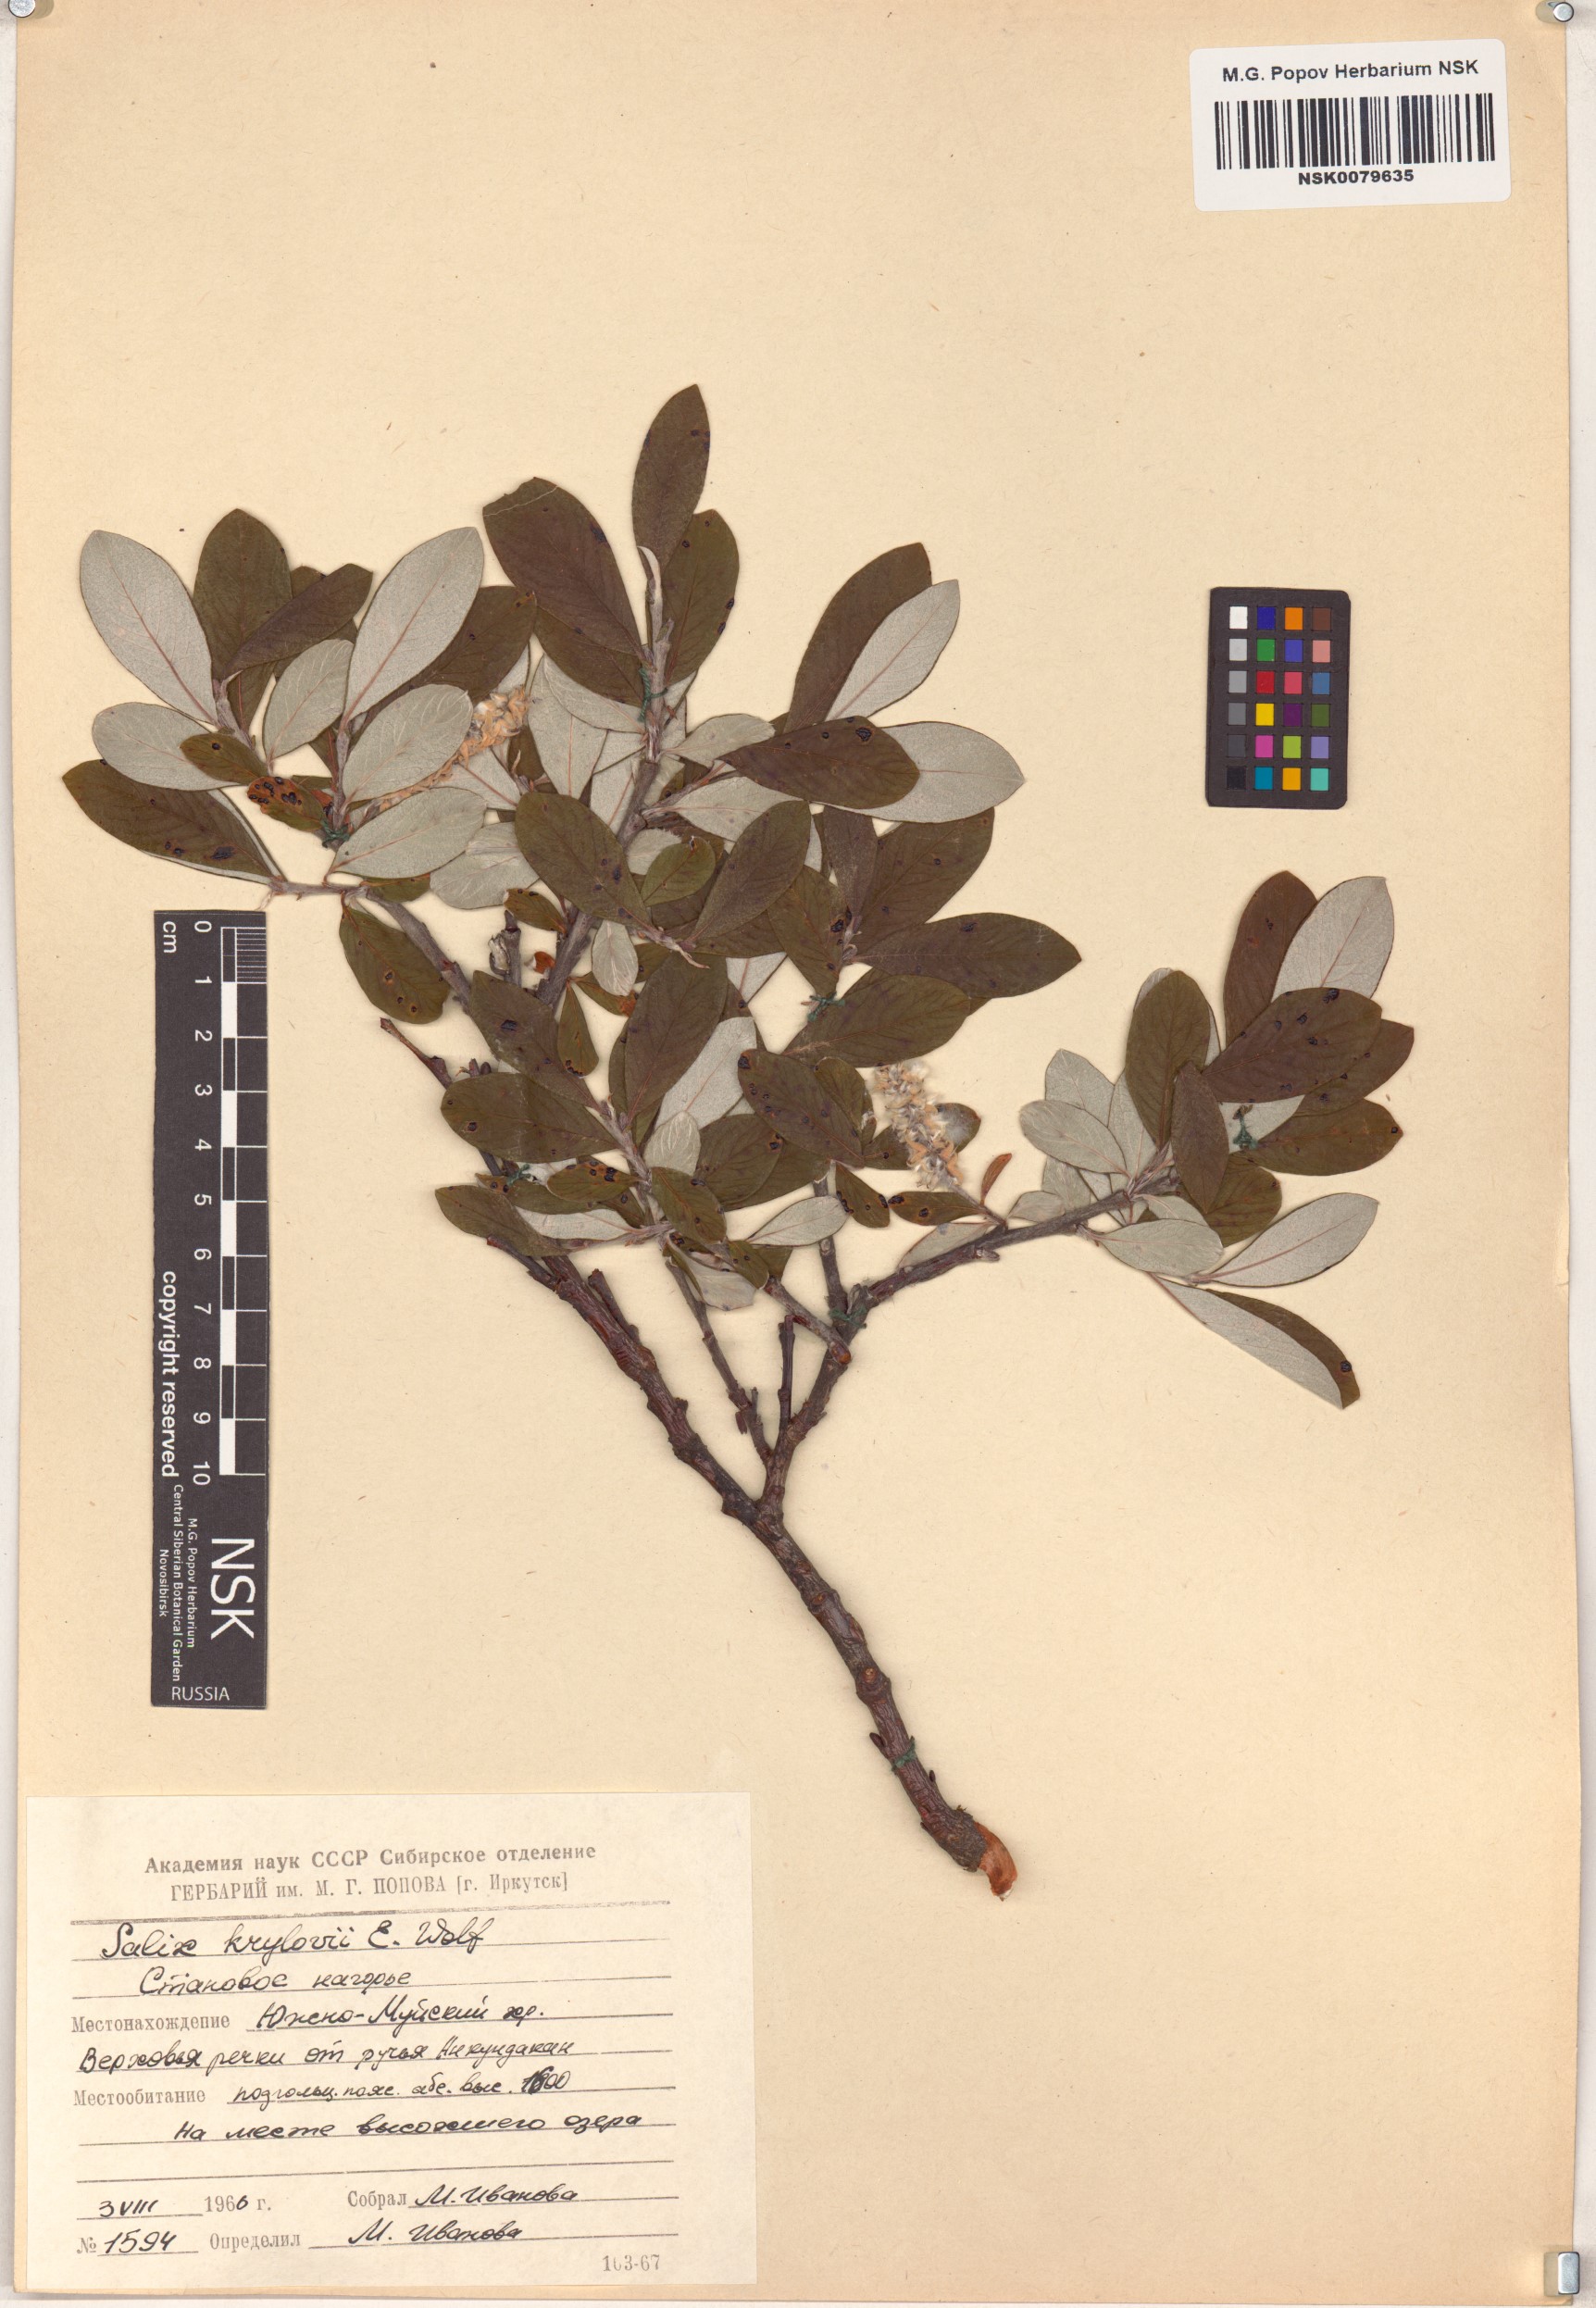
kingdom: Plantae
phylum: Tracheophyta
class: Magnoliopsida
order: Malpighiales
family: Salicaceae
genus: Salix
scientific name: Salix krylovii
